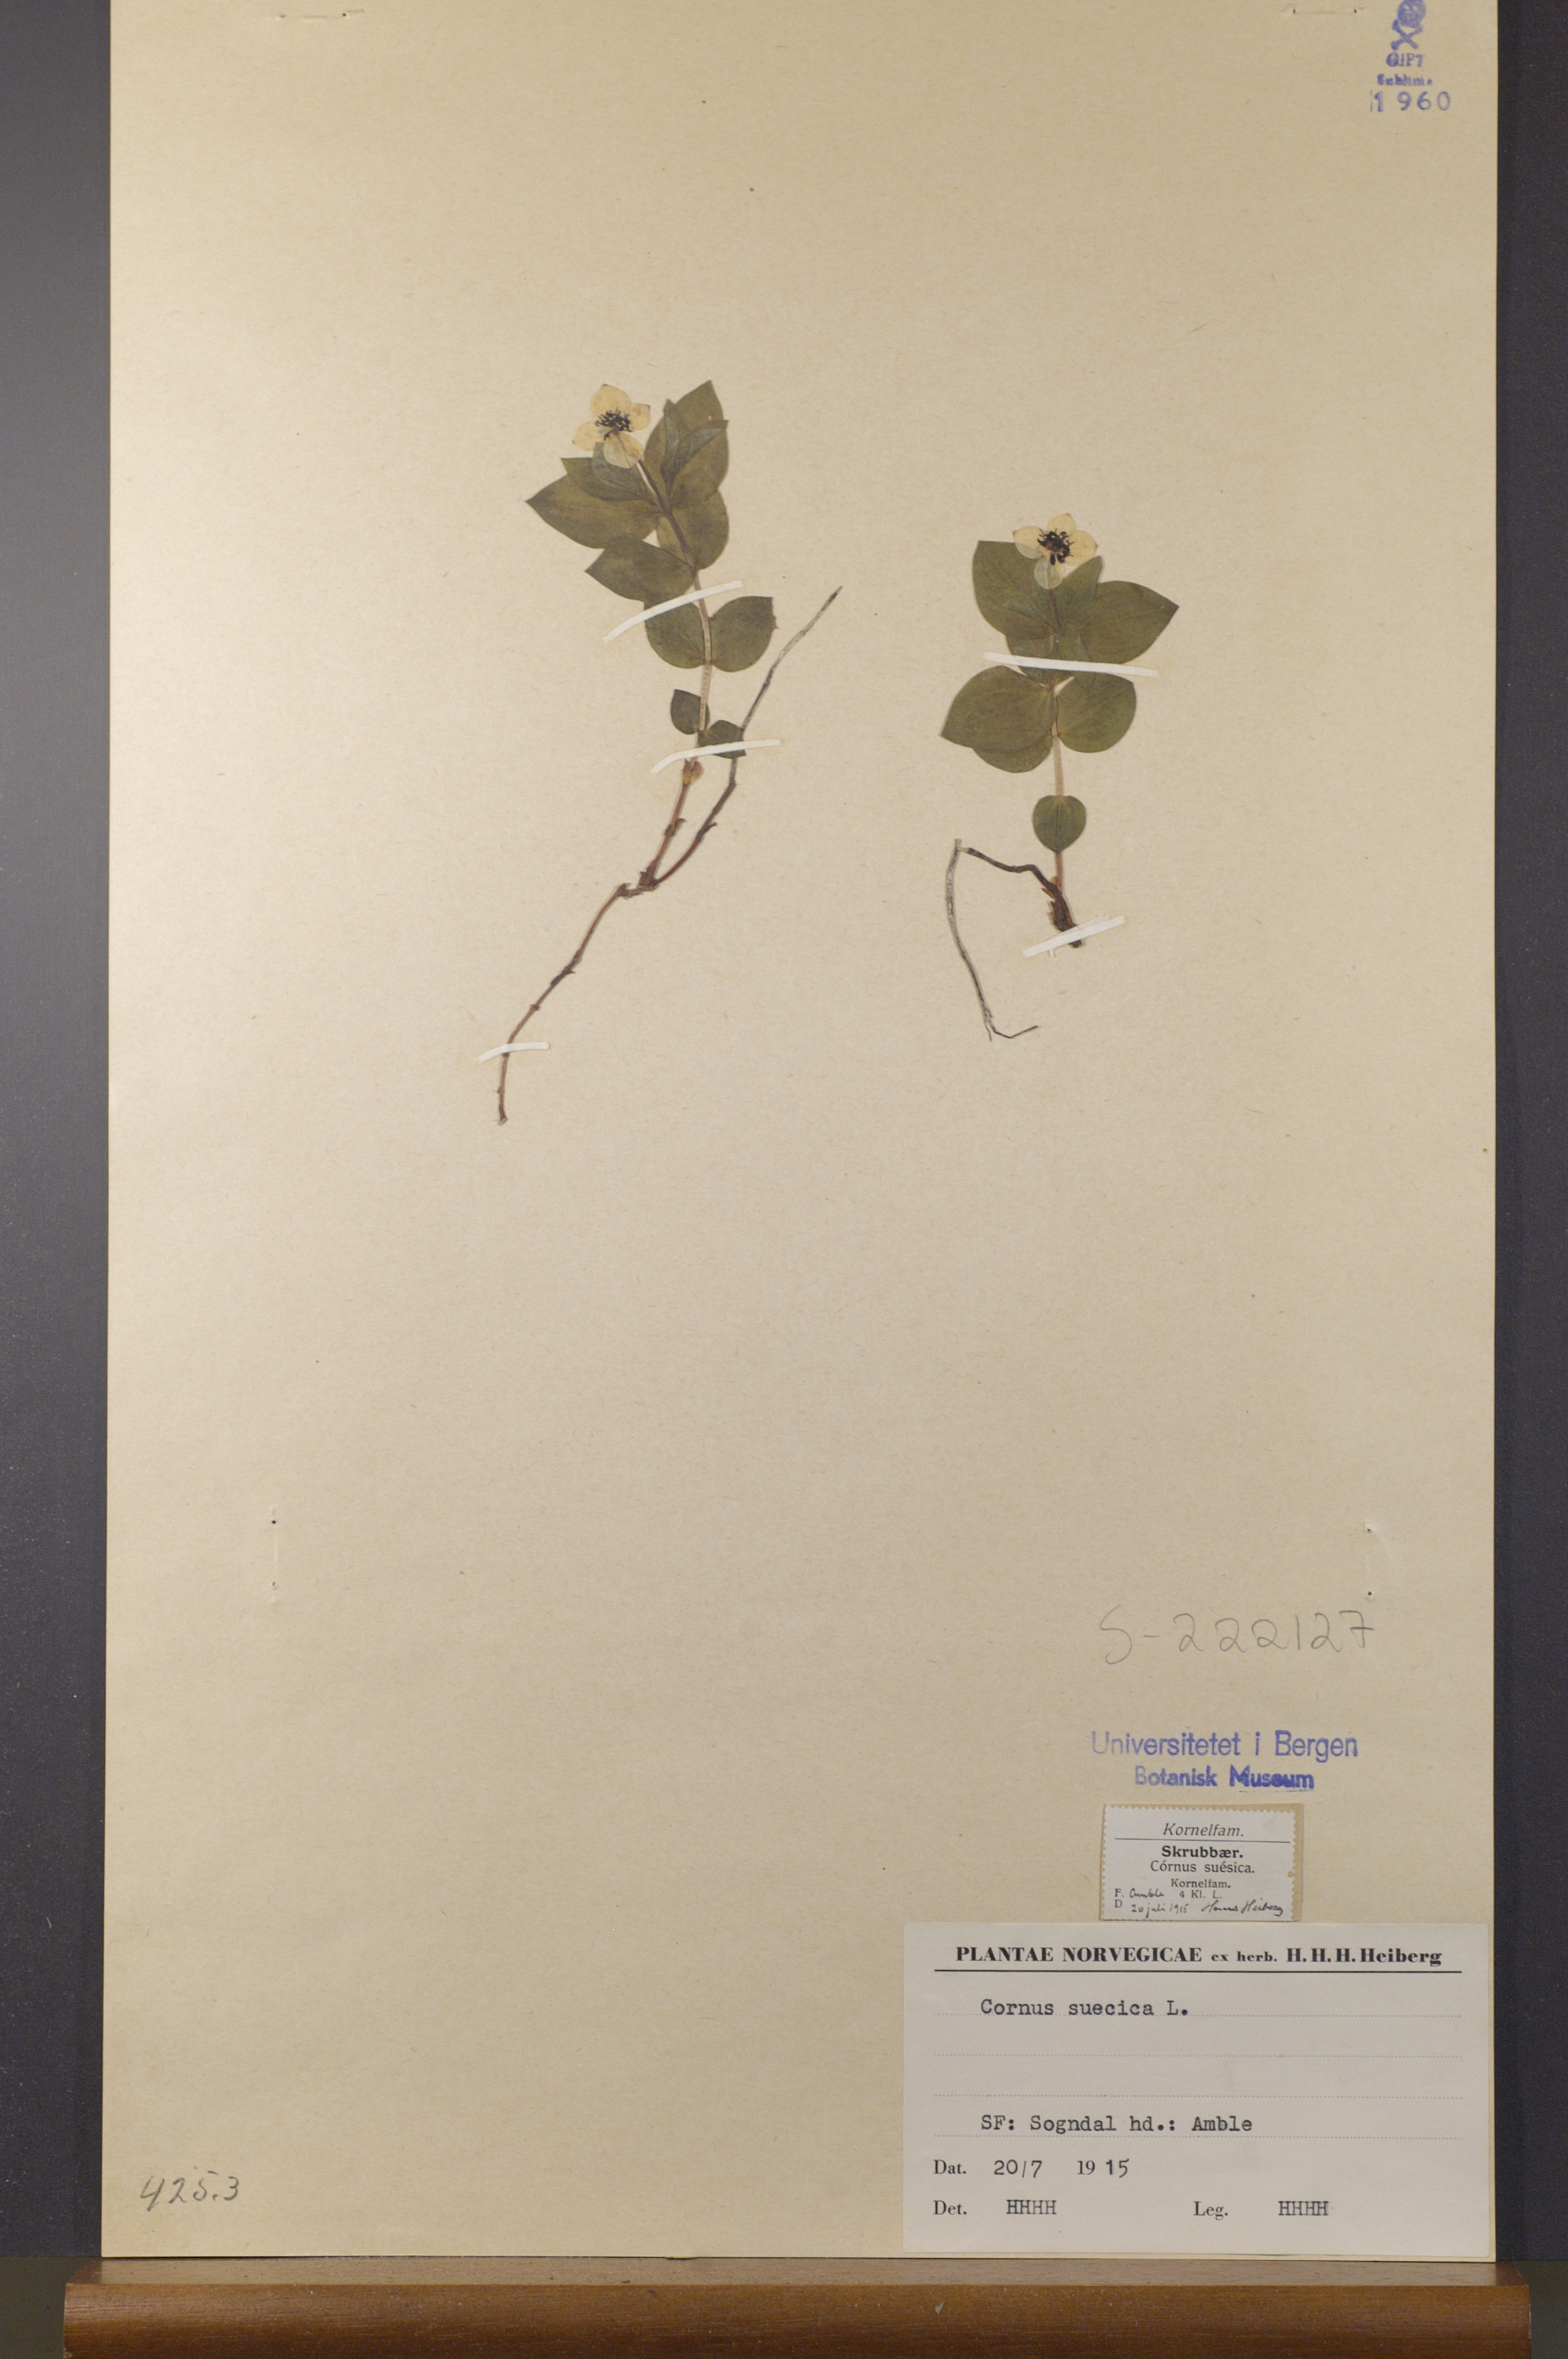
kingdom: Plantae
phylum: Tracheophyta
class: Magnoliopsida
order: Cornales
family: Cornaceae
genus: Cornus
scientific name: Cornus suecica
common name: Dwarf cornel
